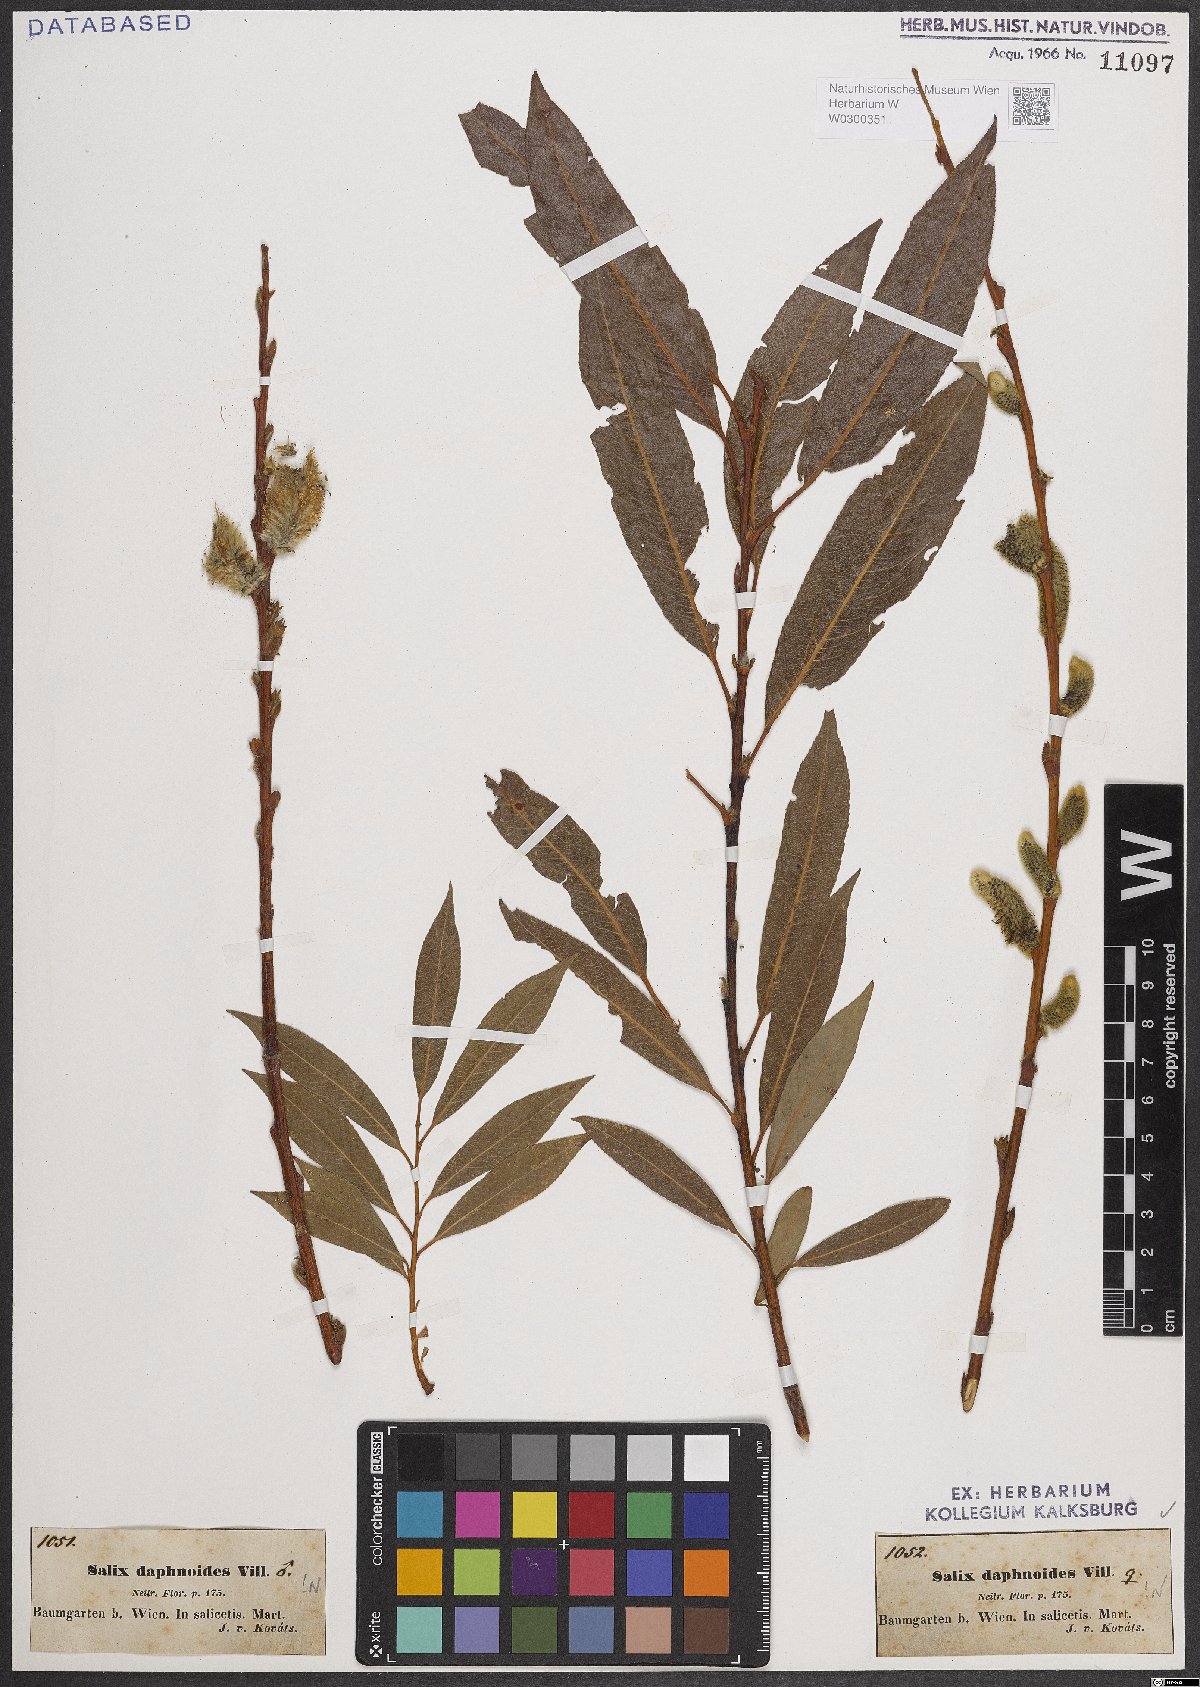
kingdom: Plantae
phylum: Tracheophyta
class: Magnoliopsida
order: Malpighiales
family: Salicaceae
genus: Salix
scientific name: Salix daphnoides
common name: European violet-willow
